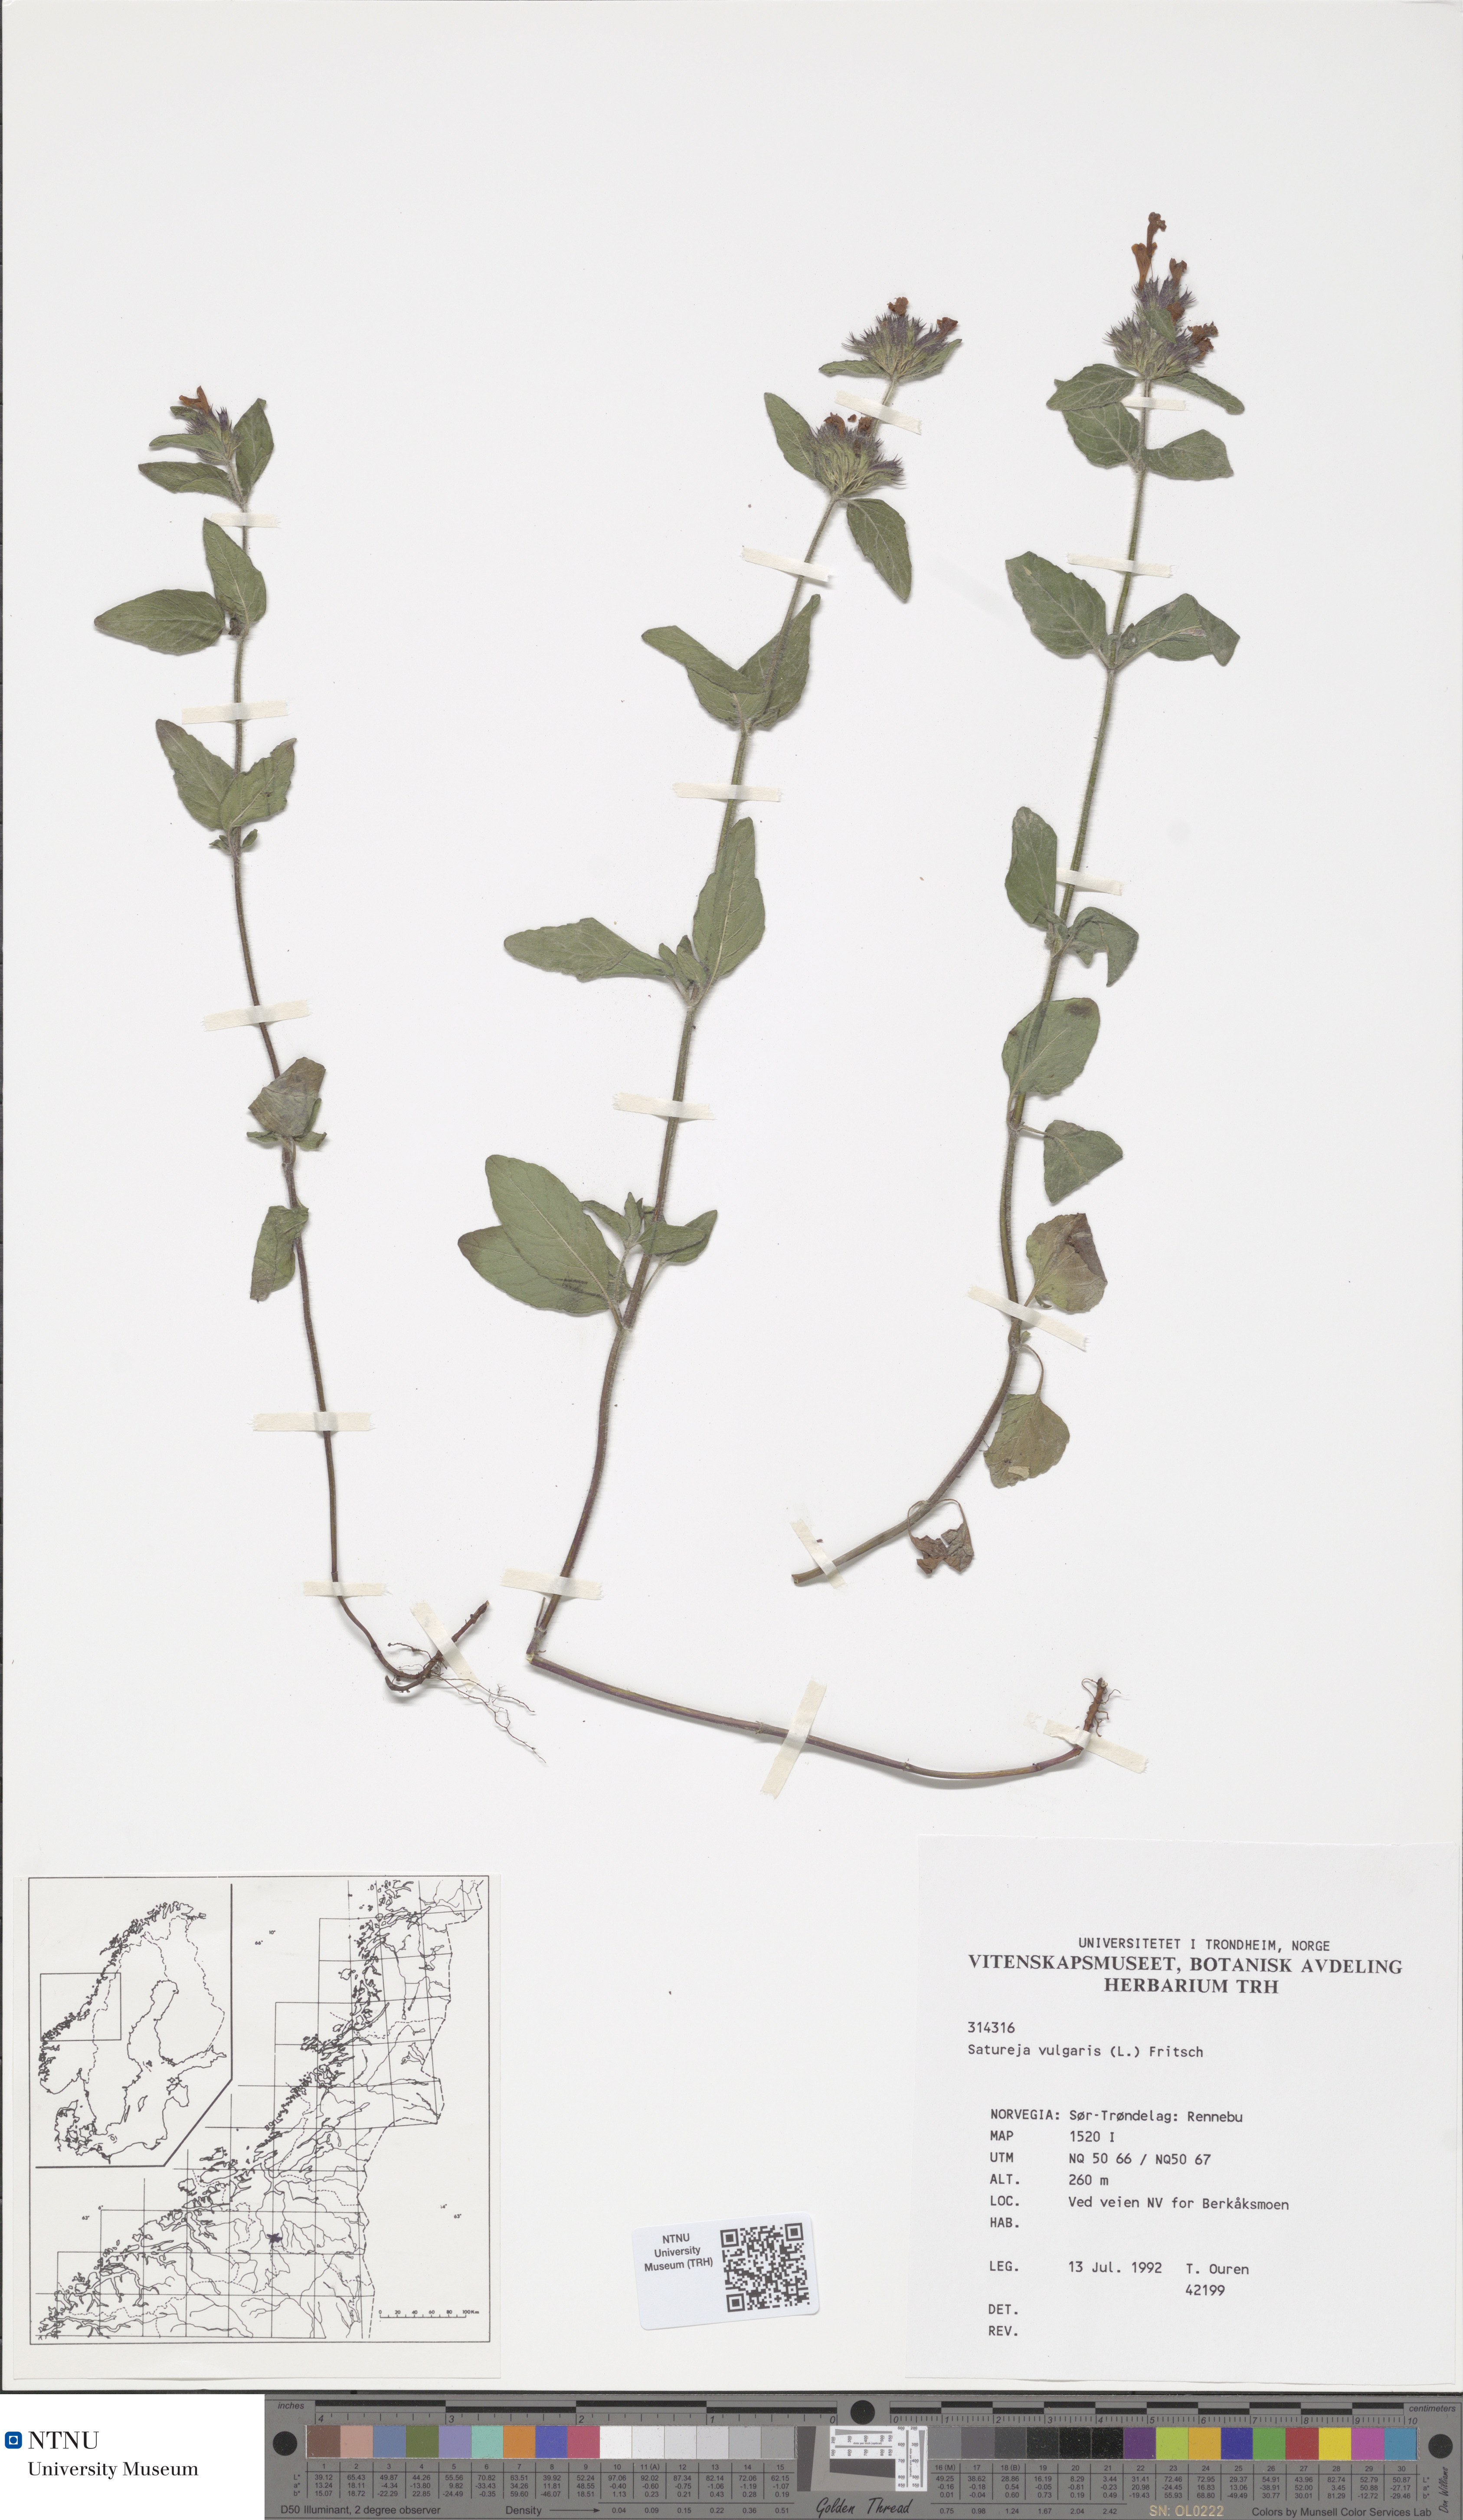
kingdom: Plantae
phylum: Tracheophyta
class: Magnoliopsida
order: Lamiales
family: Lamiaceae
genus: Clinopodium
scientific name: Clinopodium vulgare
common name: Wild basil
